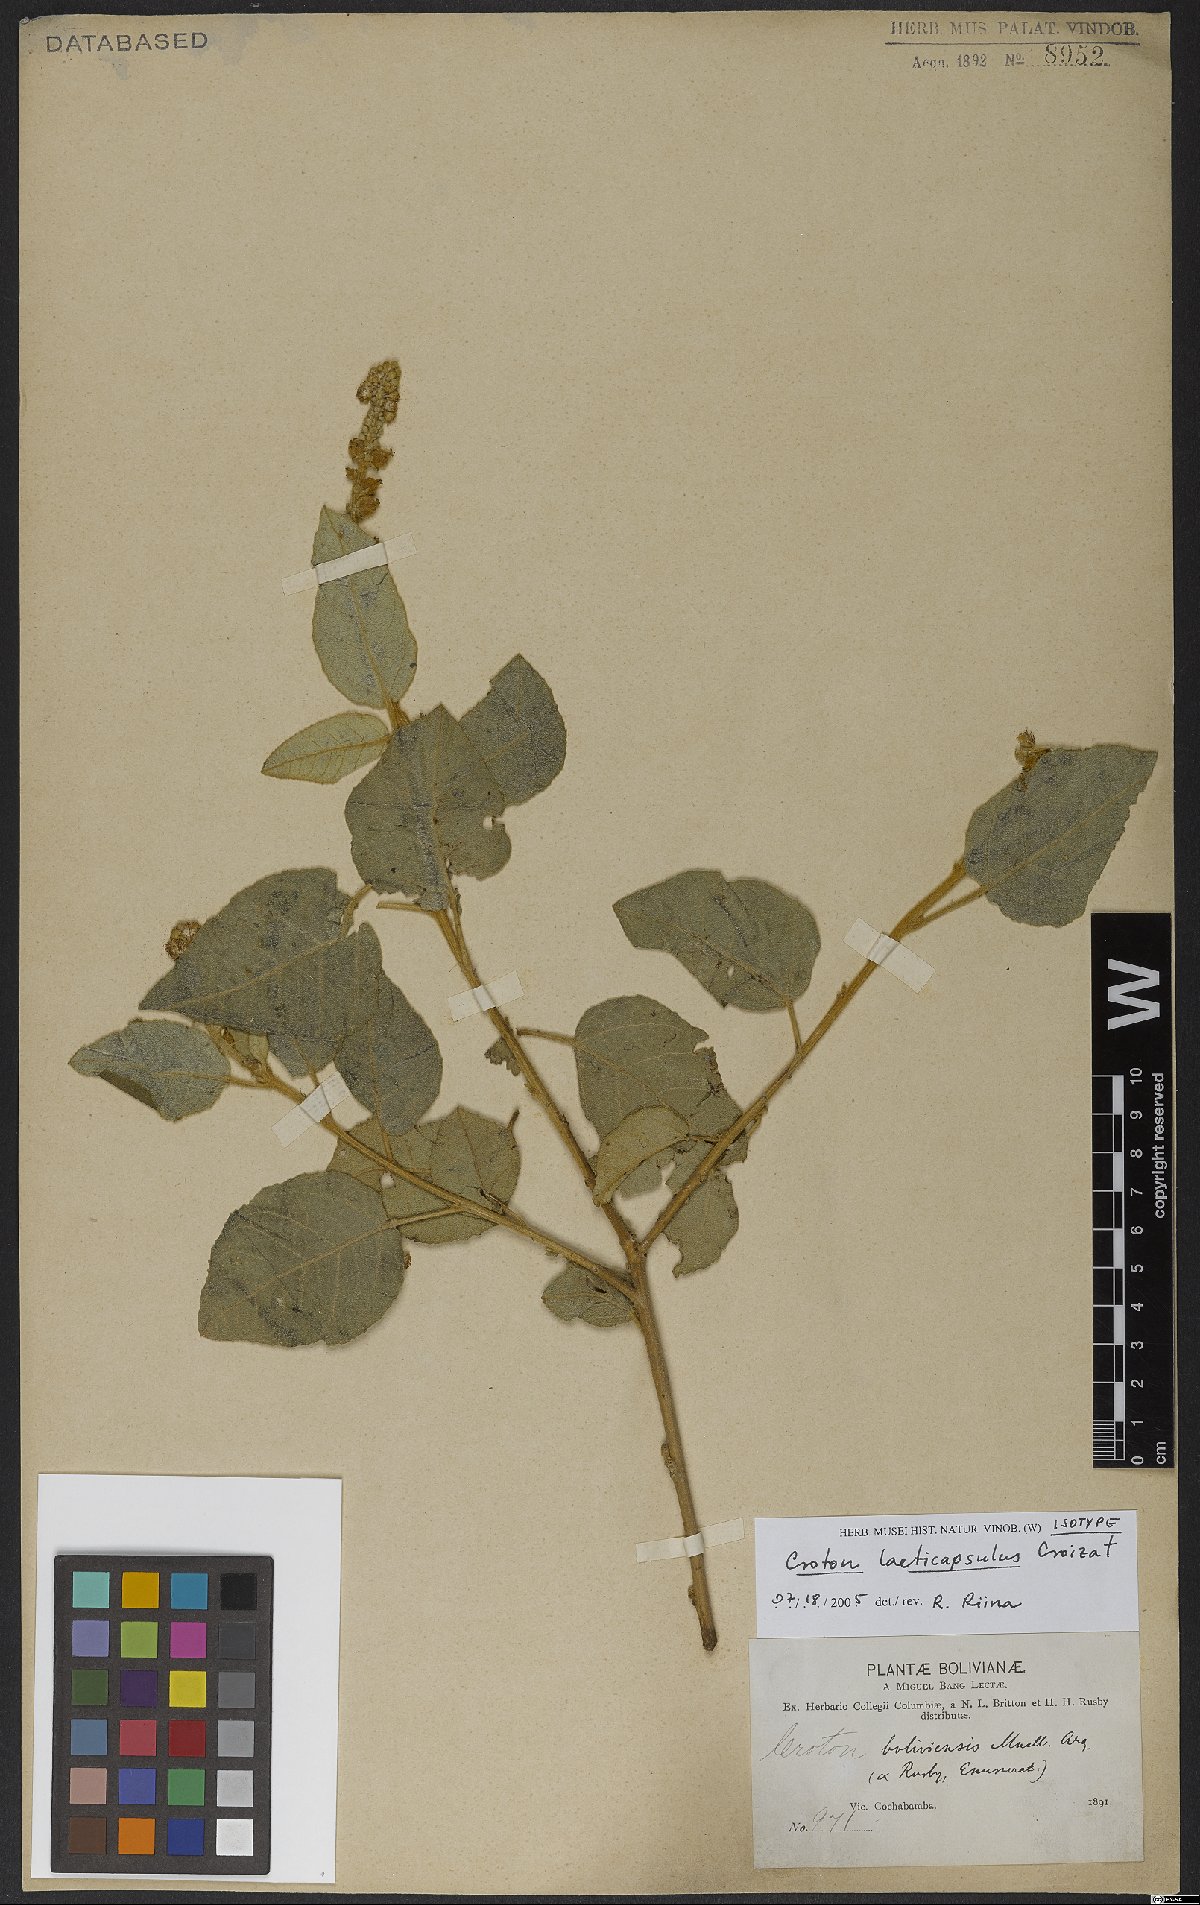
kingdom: Plantae
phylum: Tracheophyta
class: Magnoliopsida
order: Malpighiales
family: Euphorbiaceae
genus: Croton
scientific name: Croton laeticapsulus
